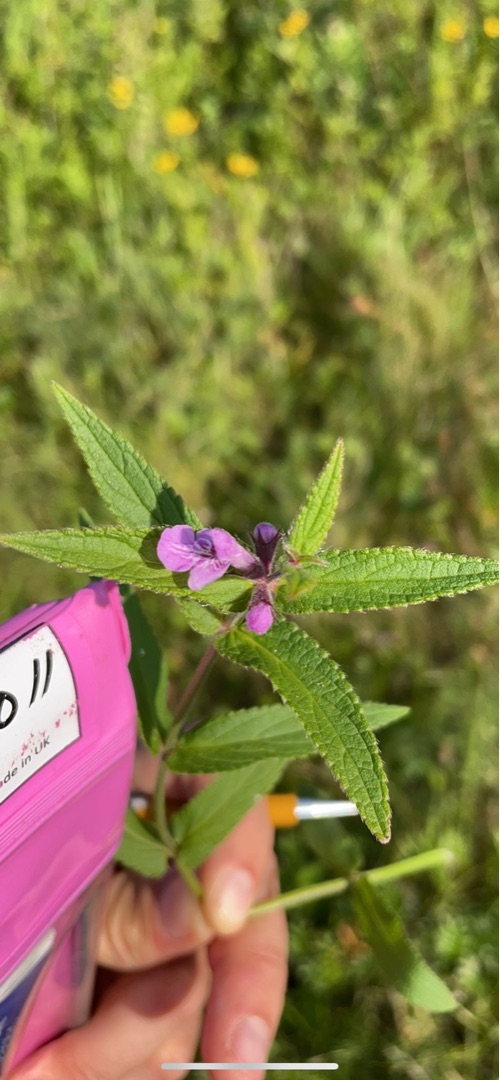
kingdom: Plantae
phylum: Tracheophyta
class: Magnoliopsida
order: Lamiales
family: Lamiaceae
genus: Stachys
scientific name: Stachys palustris
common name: Kær-galtetand
